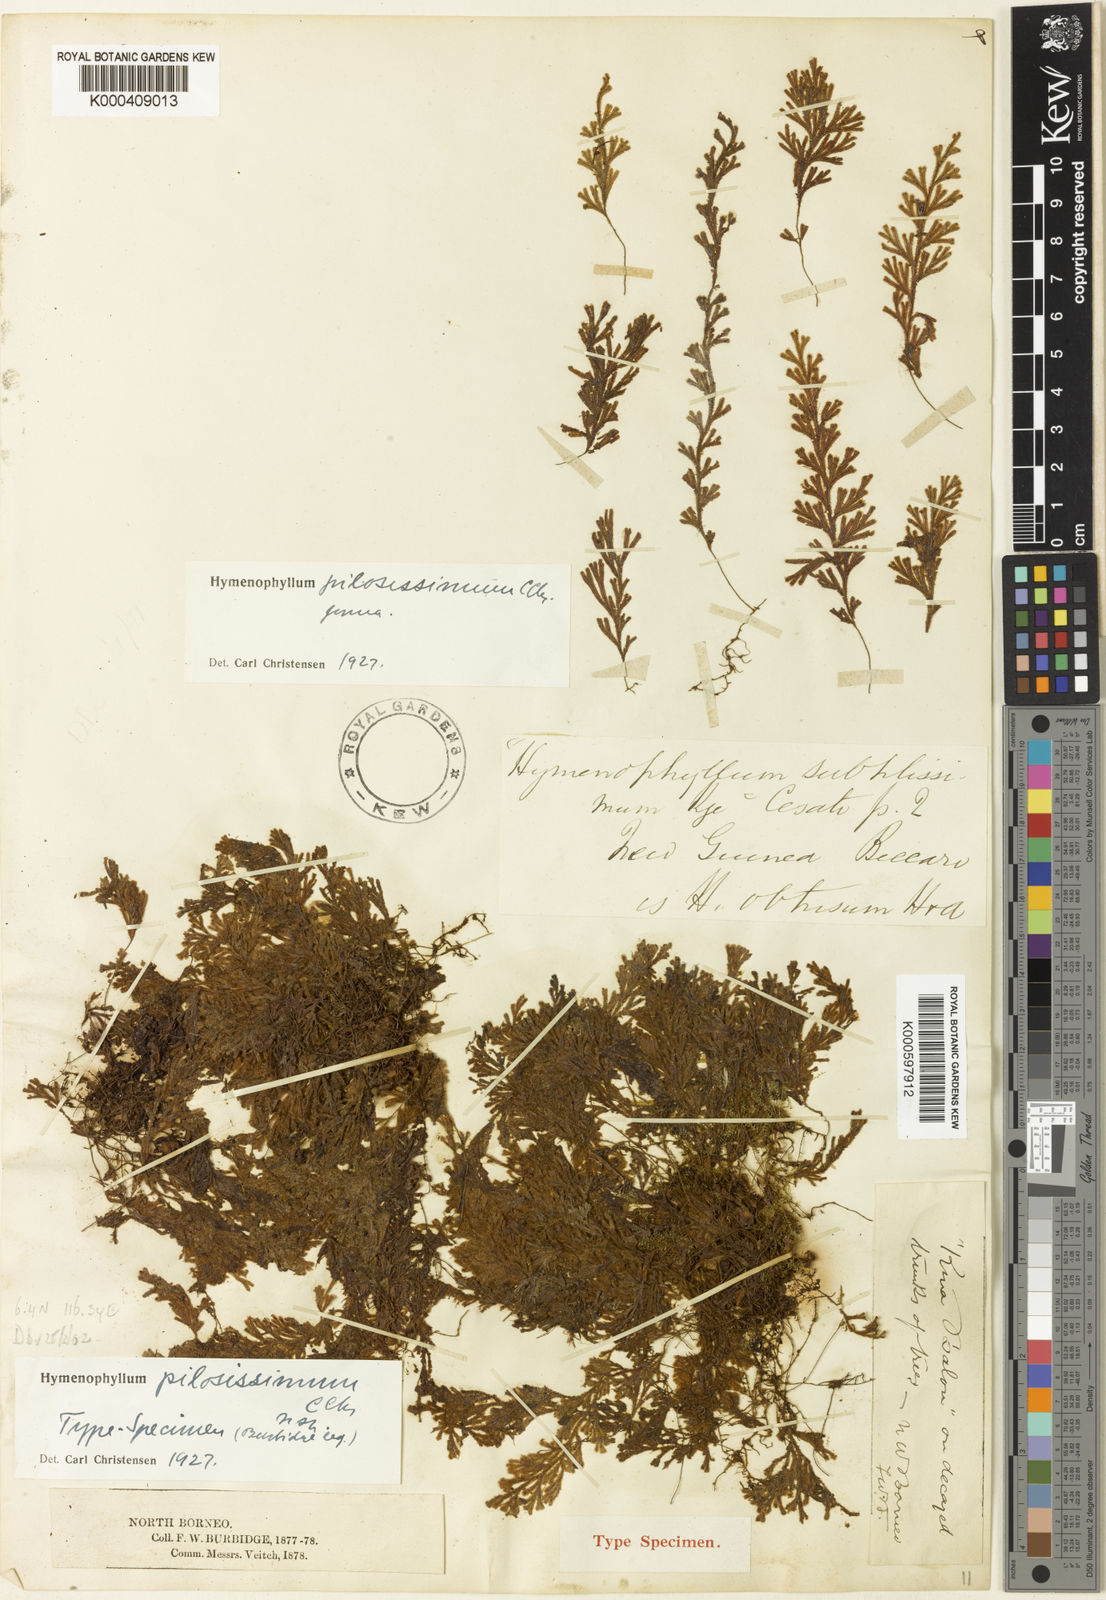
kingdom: Plantae
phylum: Tracheophyta
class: Polypodiopsida
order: Hymenophyllales
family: Hymenophyllaceae
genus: Hymenophyllum
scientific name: Hymenophyllum pilosissimum
